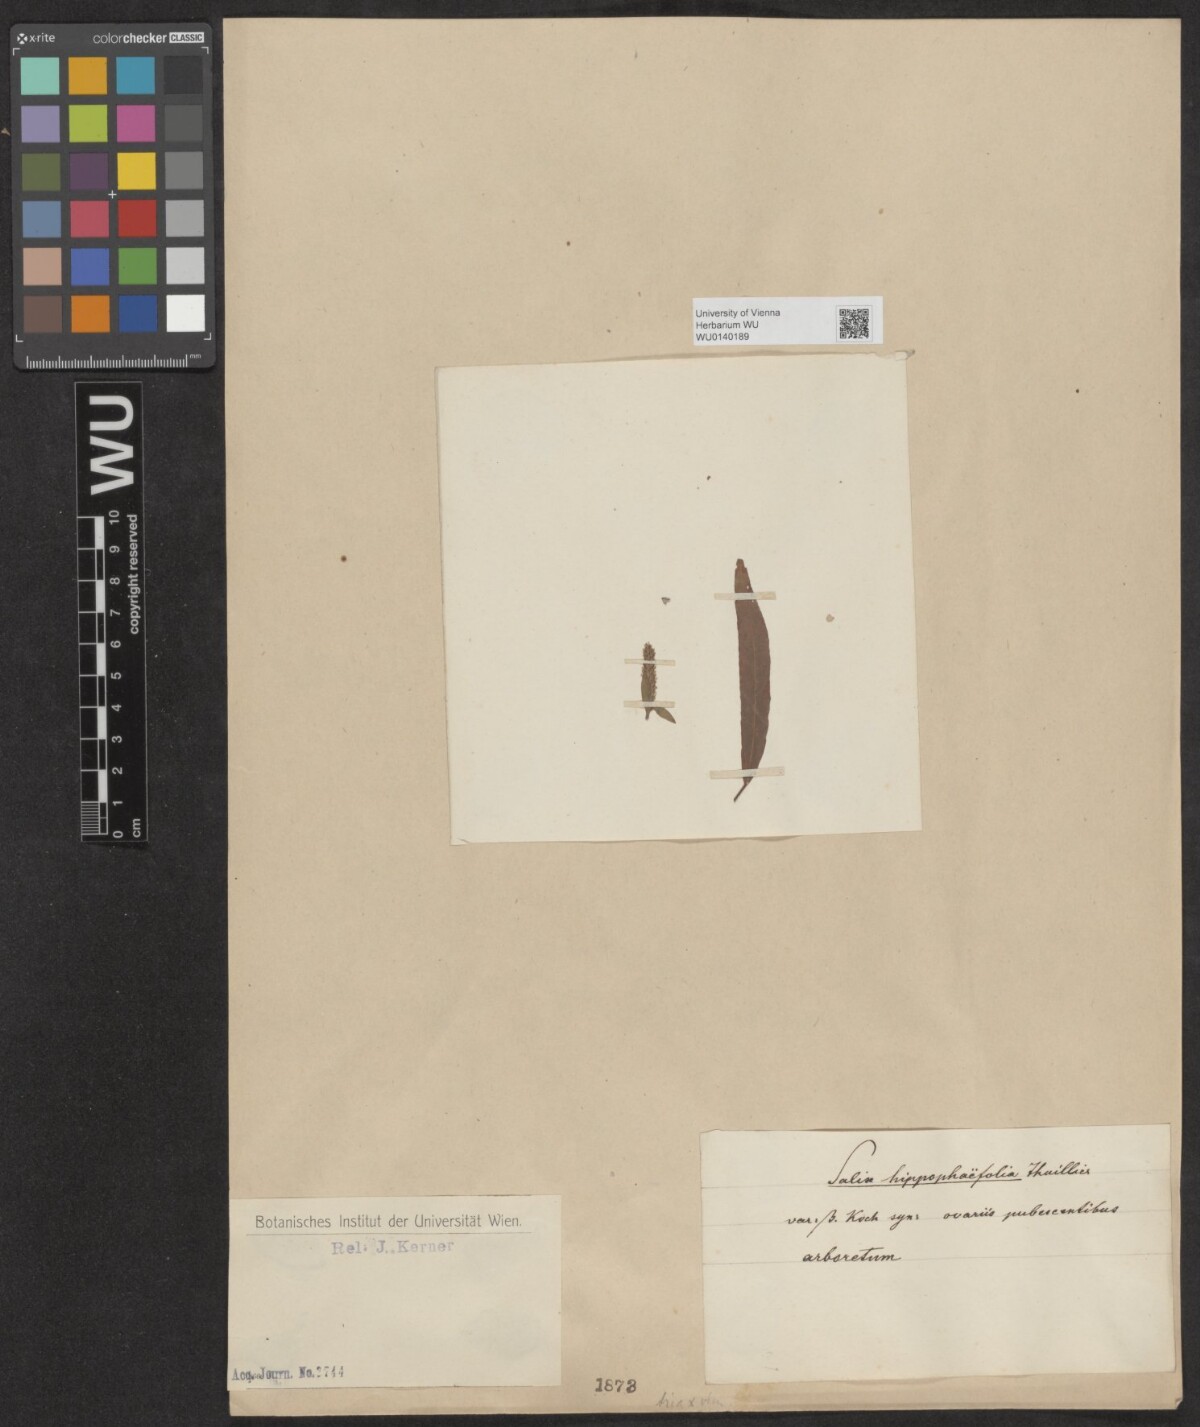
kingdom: Plantae
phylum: Tracheophyta
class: Magnoliopsida
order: Malpighiales
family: Salicaceae
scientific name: Salicaceae
